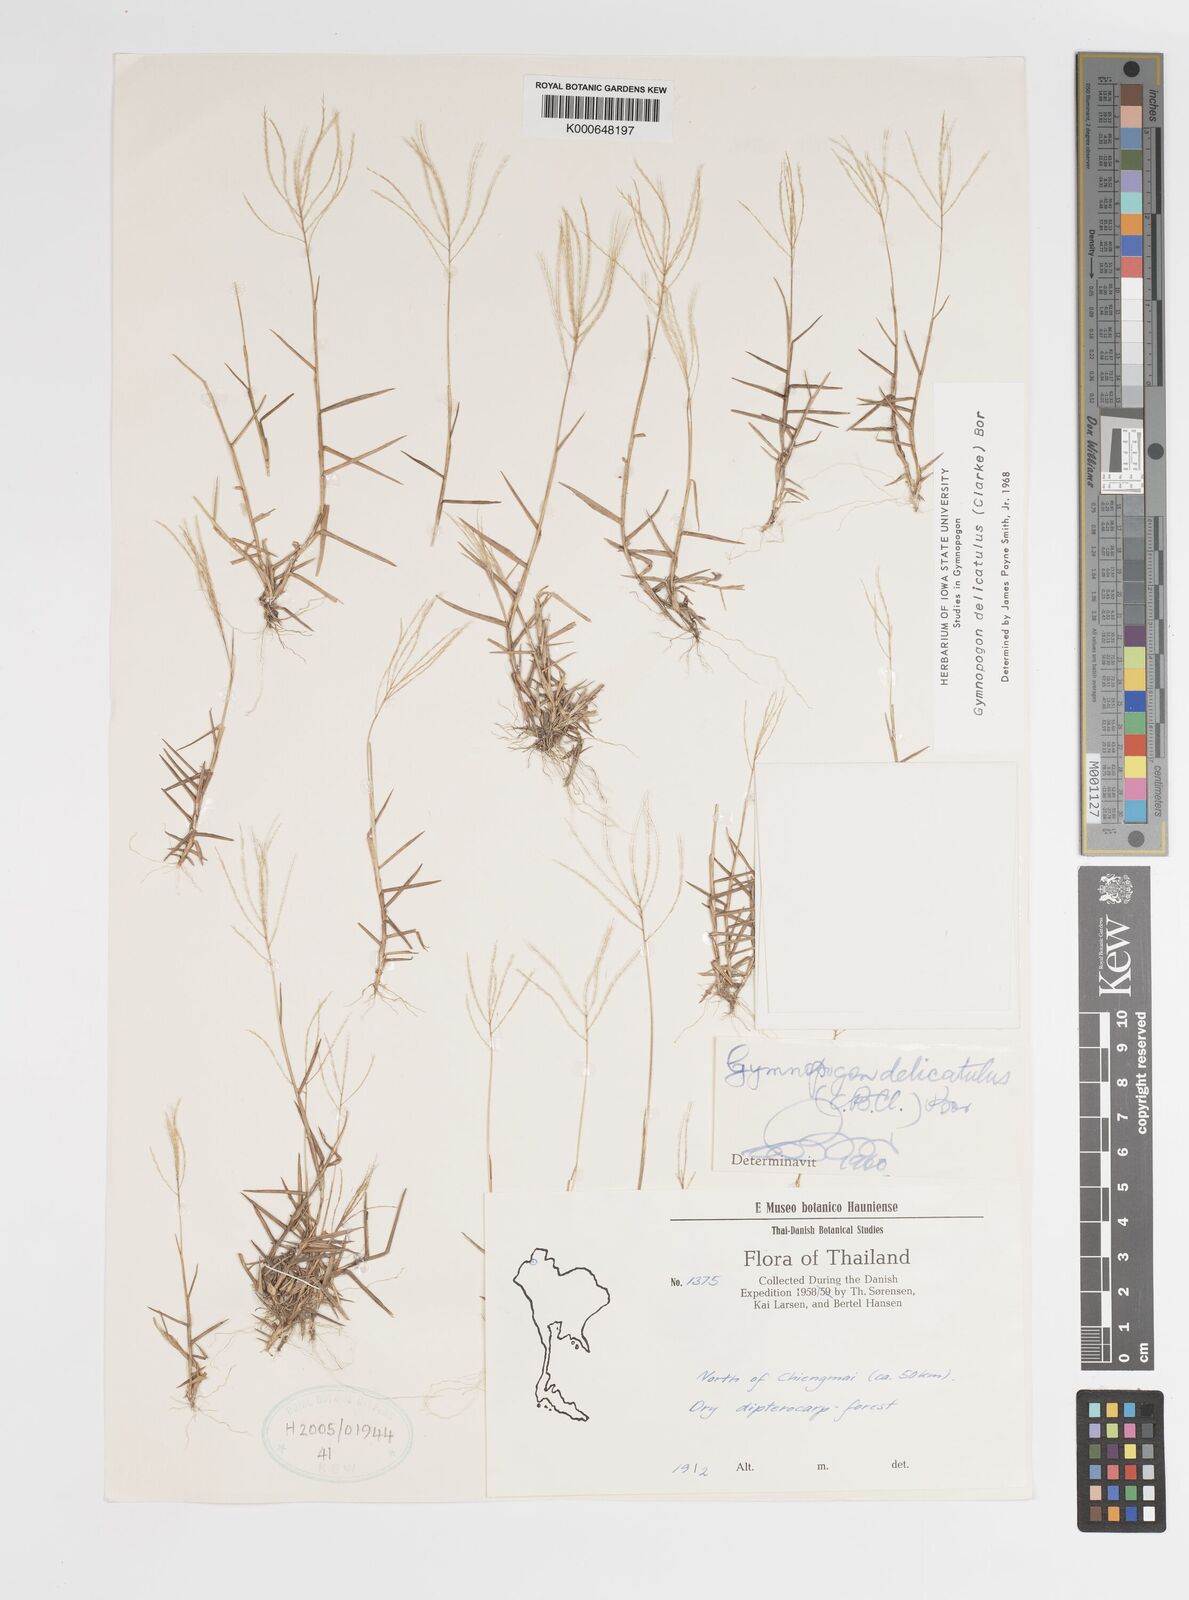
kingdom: Plantae
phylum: Tracheophyta
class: Liliopsida
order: Poales
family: Poaceae
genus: Gymnopogon
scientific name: Gymnopogon delicatulus
